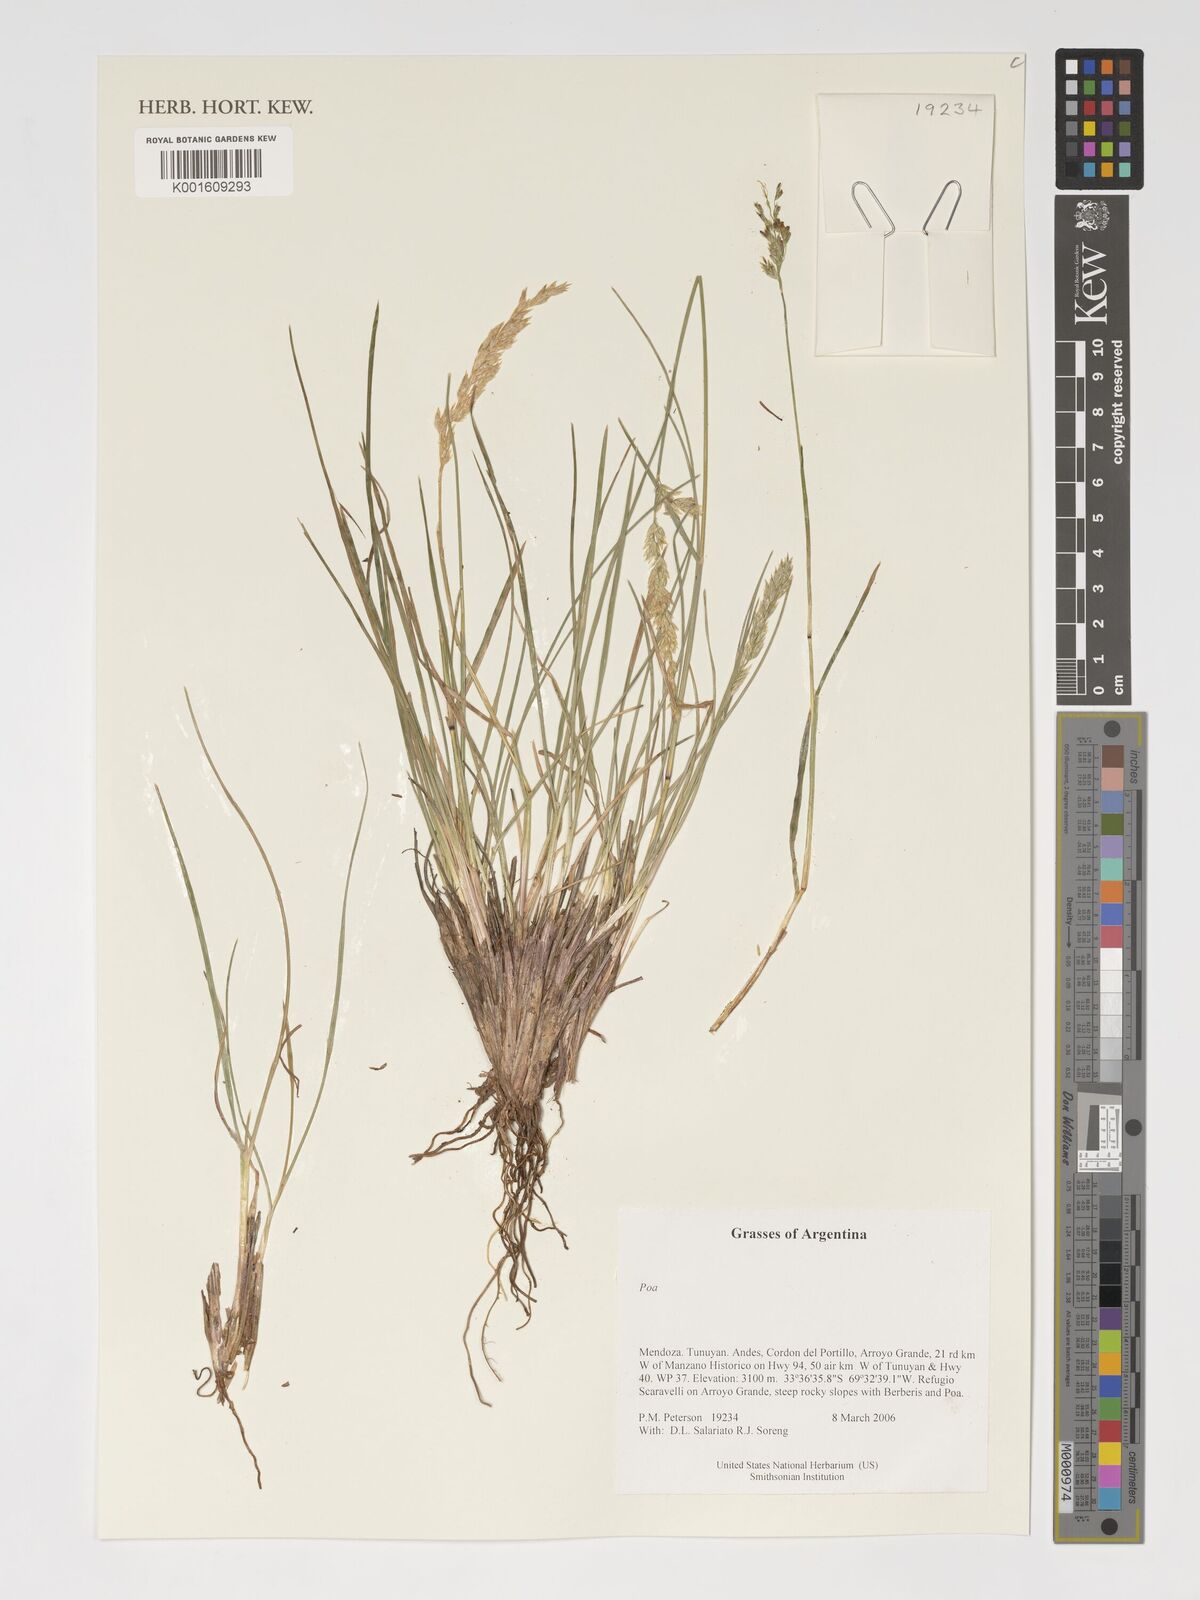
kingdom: Plantae
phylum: Tracheophyta
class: Liliopsida
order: Poales
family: Poaceae
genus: Poa
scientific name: Poa
